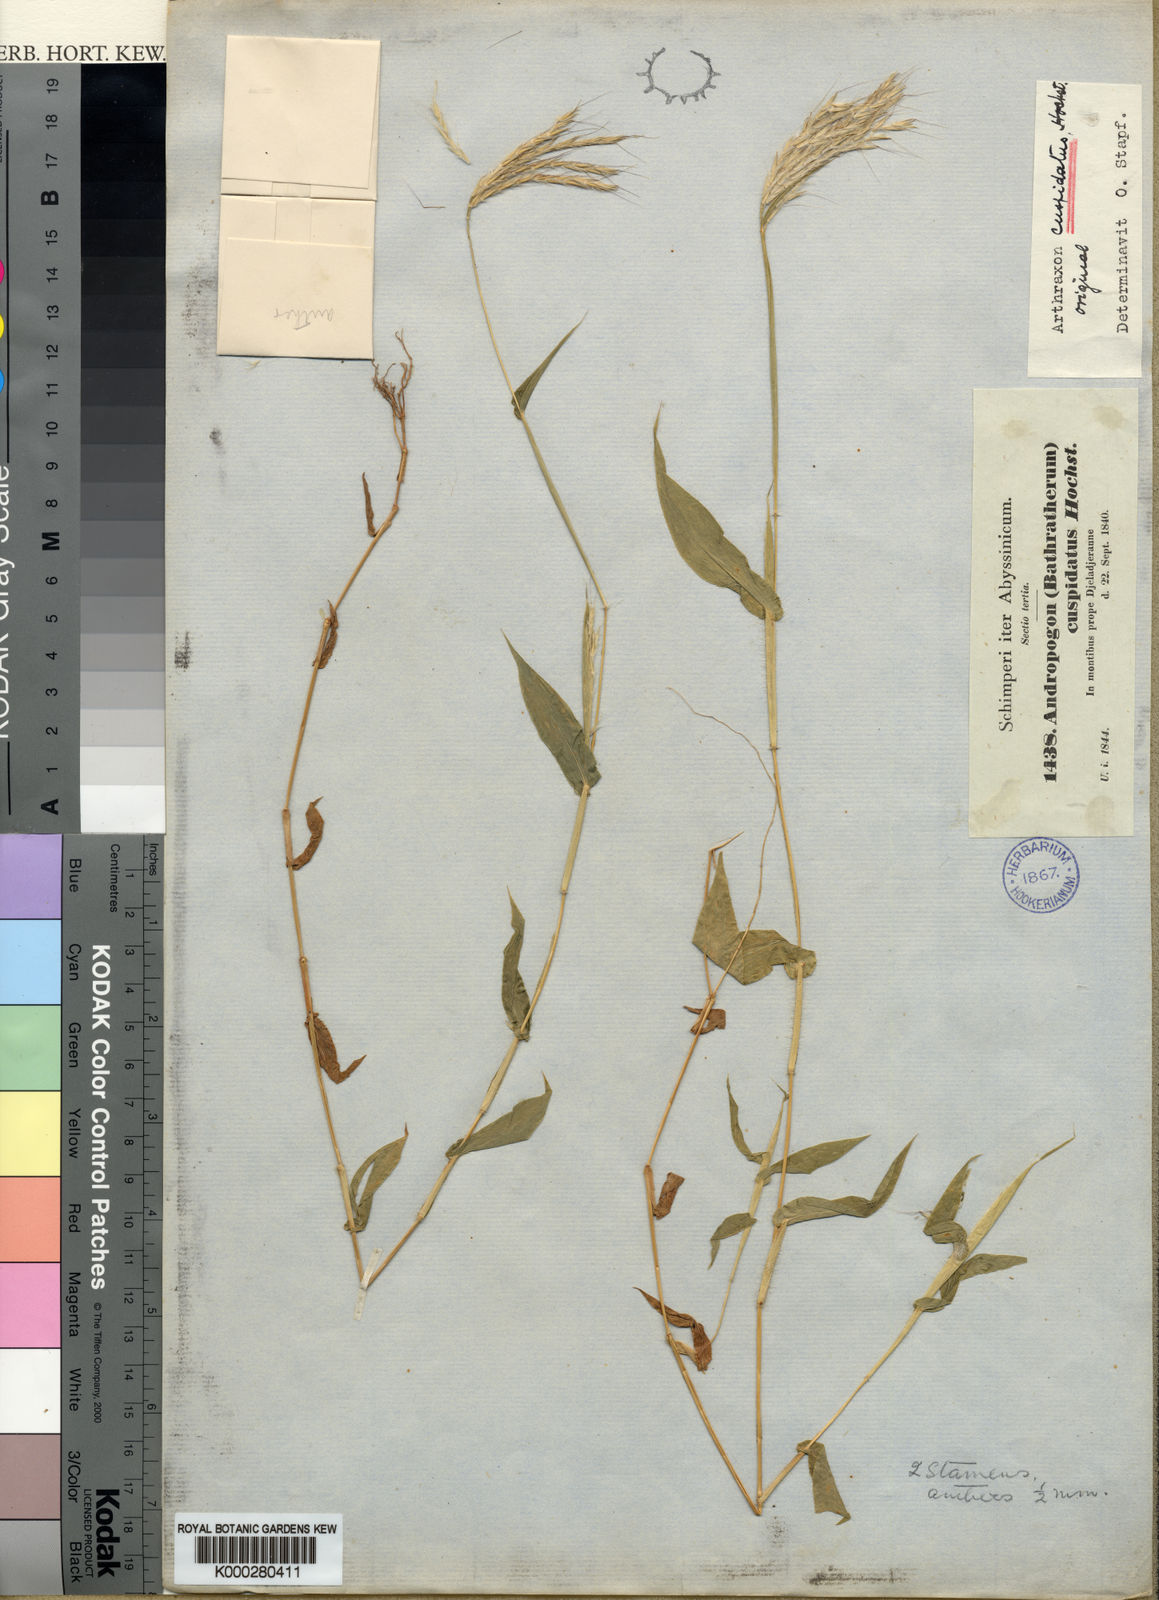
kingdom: Plantae
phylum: Tracheophyta
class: Liliopsida
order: Poales
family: Poaceae
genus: Arthraxon
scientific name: Arthraxon cuspidatus
